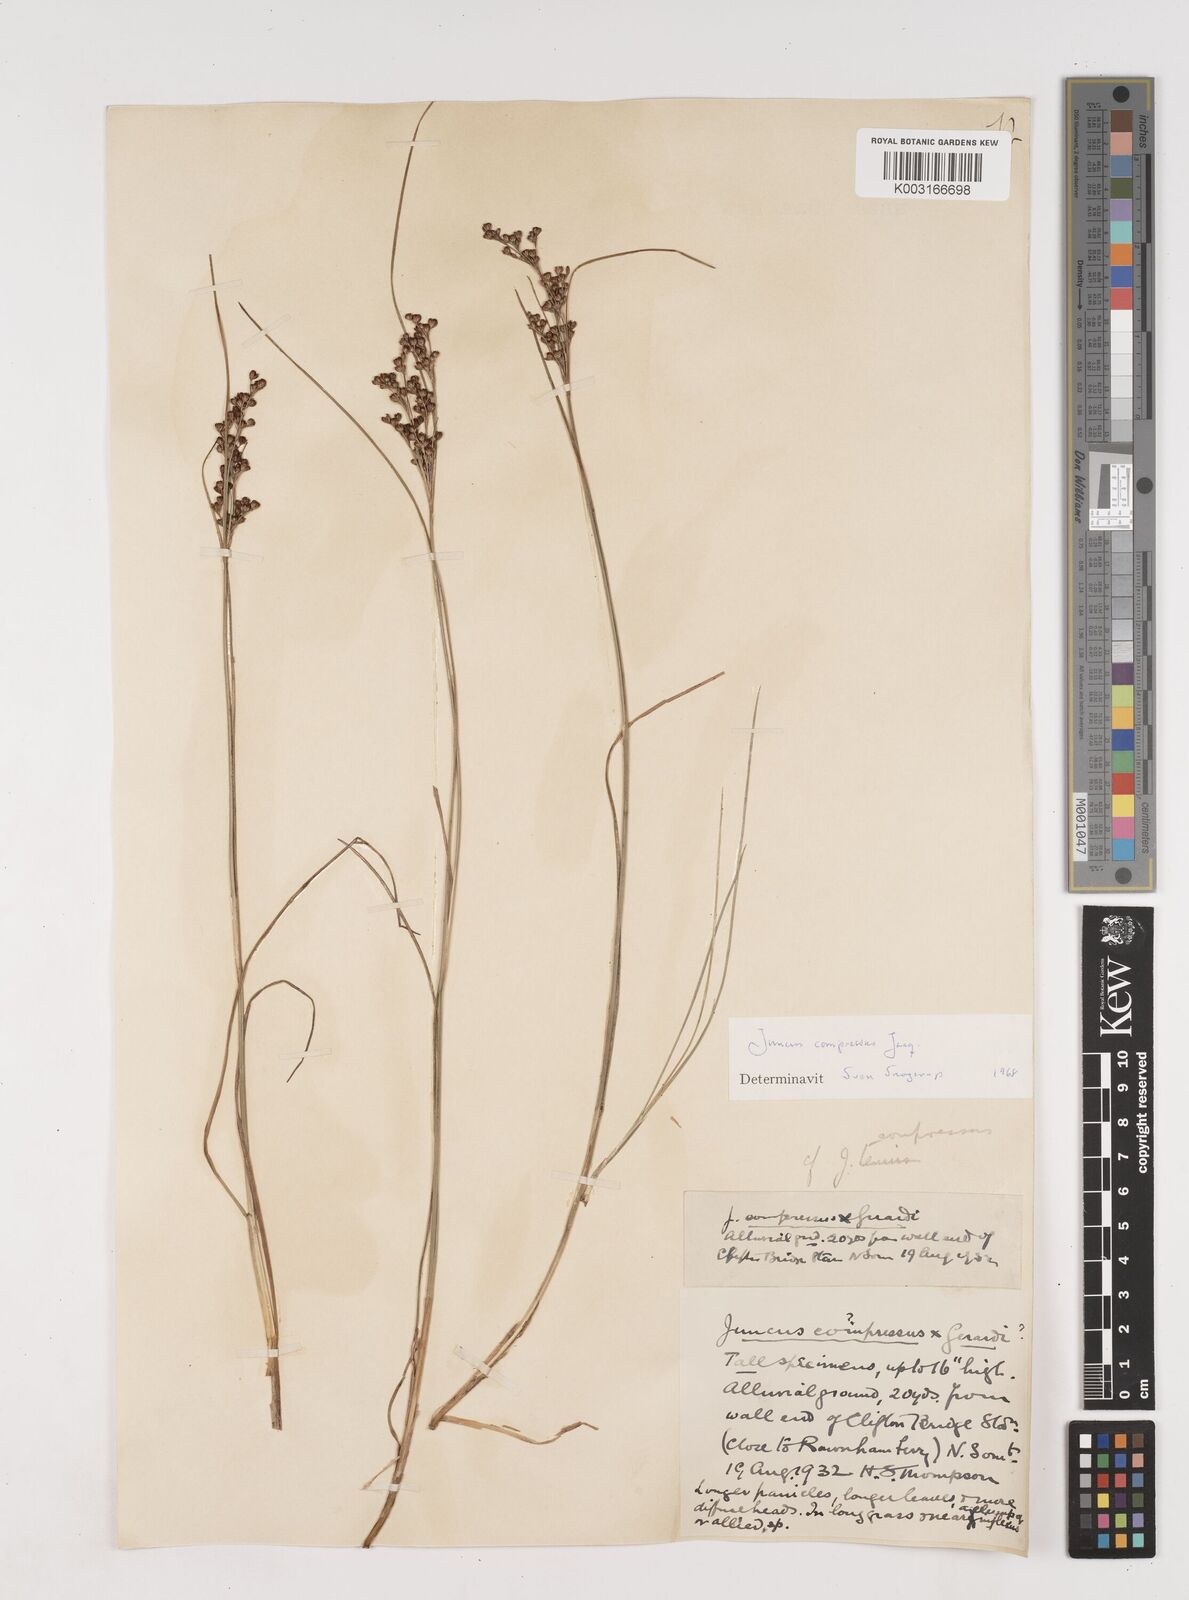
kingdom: Plantae
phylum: Tracheophyta
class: Liliopsida
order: Poales
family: Juncaceae
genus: Juncus
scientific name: Juncus compressus
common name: Round-fruited rush
